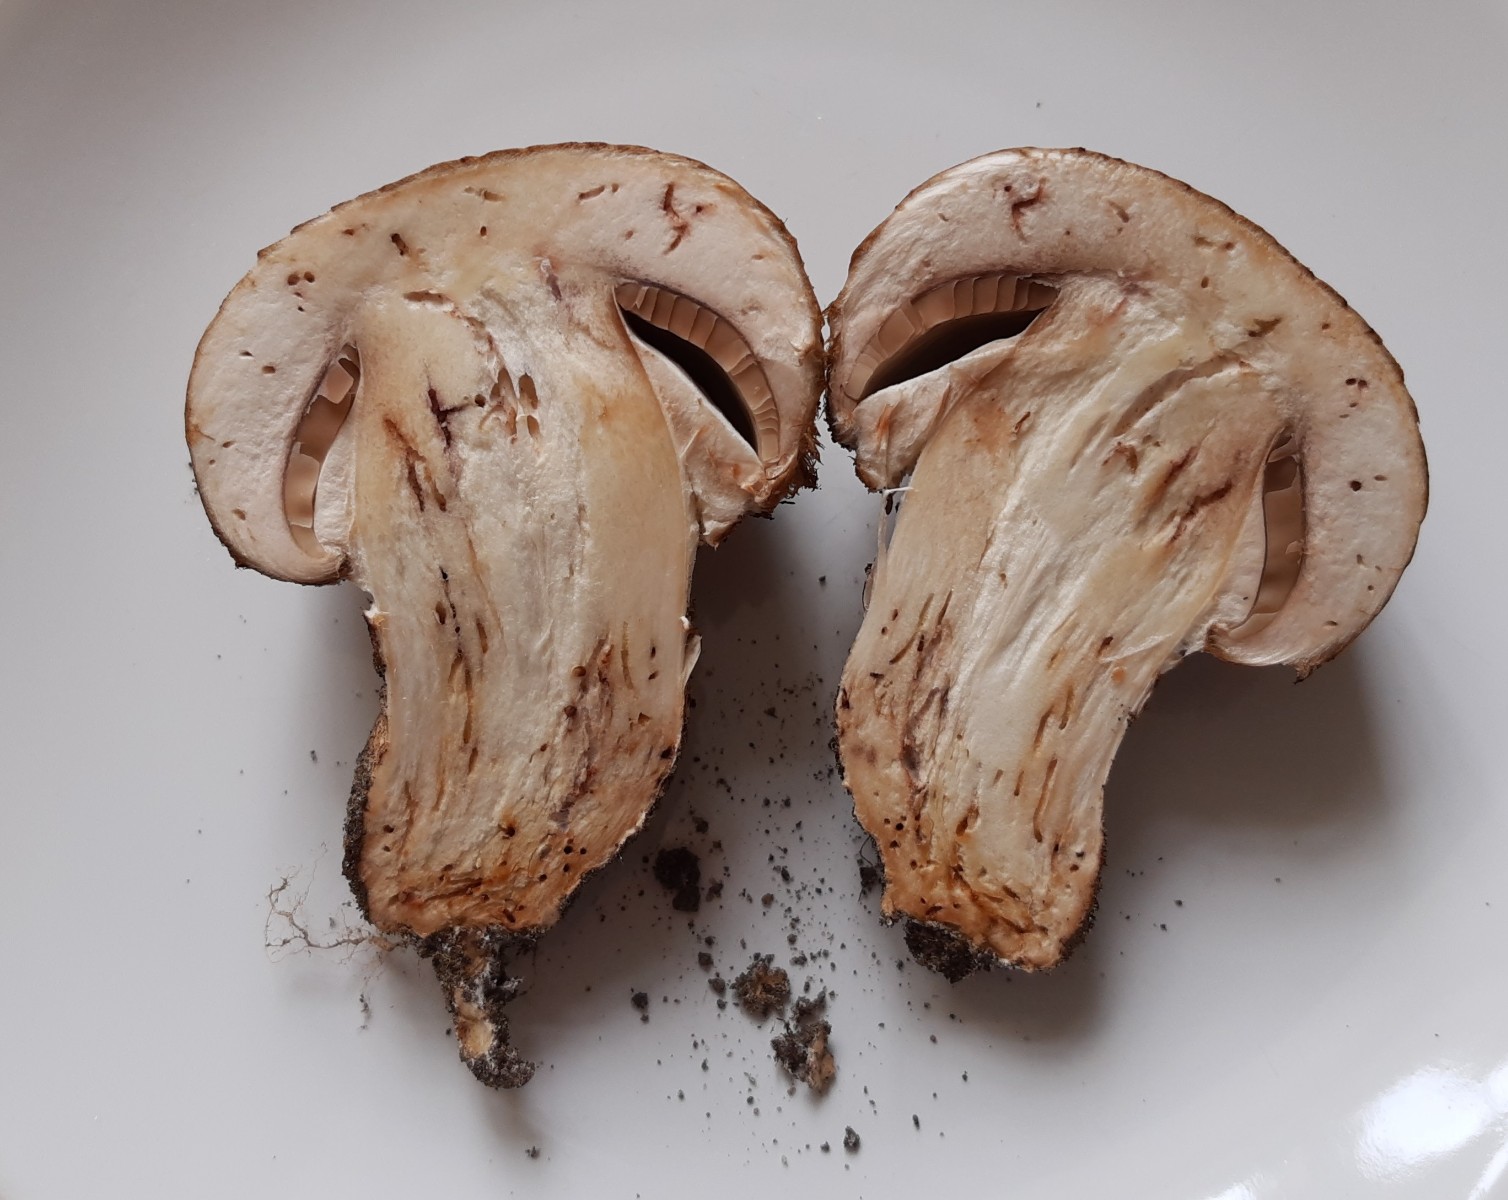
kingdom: Fungi
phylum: Basidiomycota
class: Agaricomycetes
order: Agaricales
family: Agaricaceae
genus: Agaricus
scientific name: Agaricus lanipes
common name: uldstokket champignon
